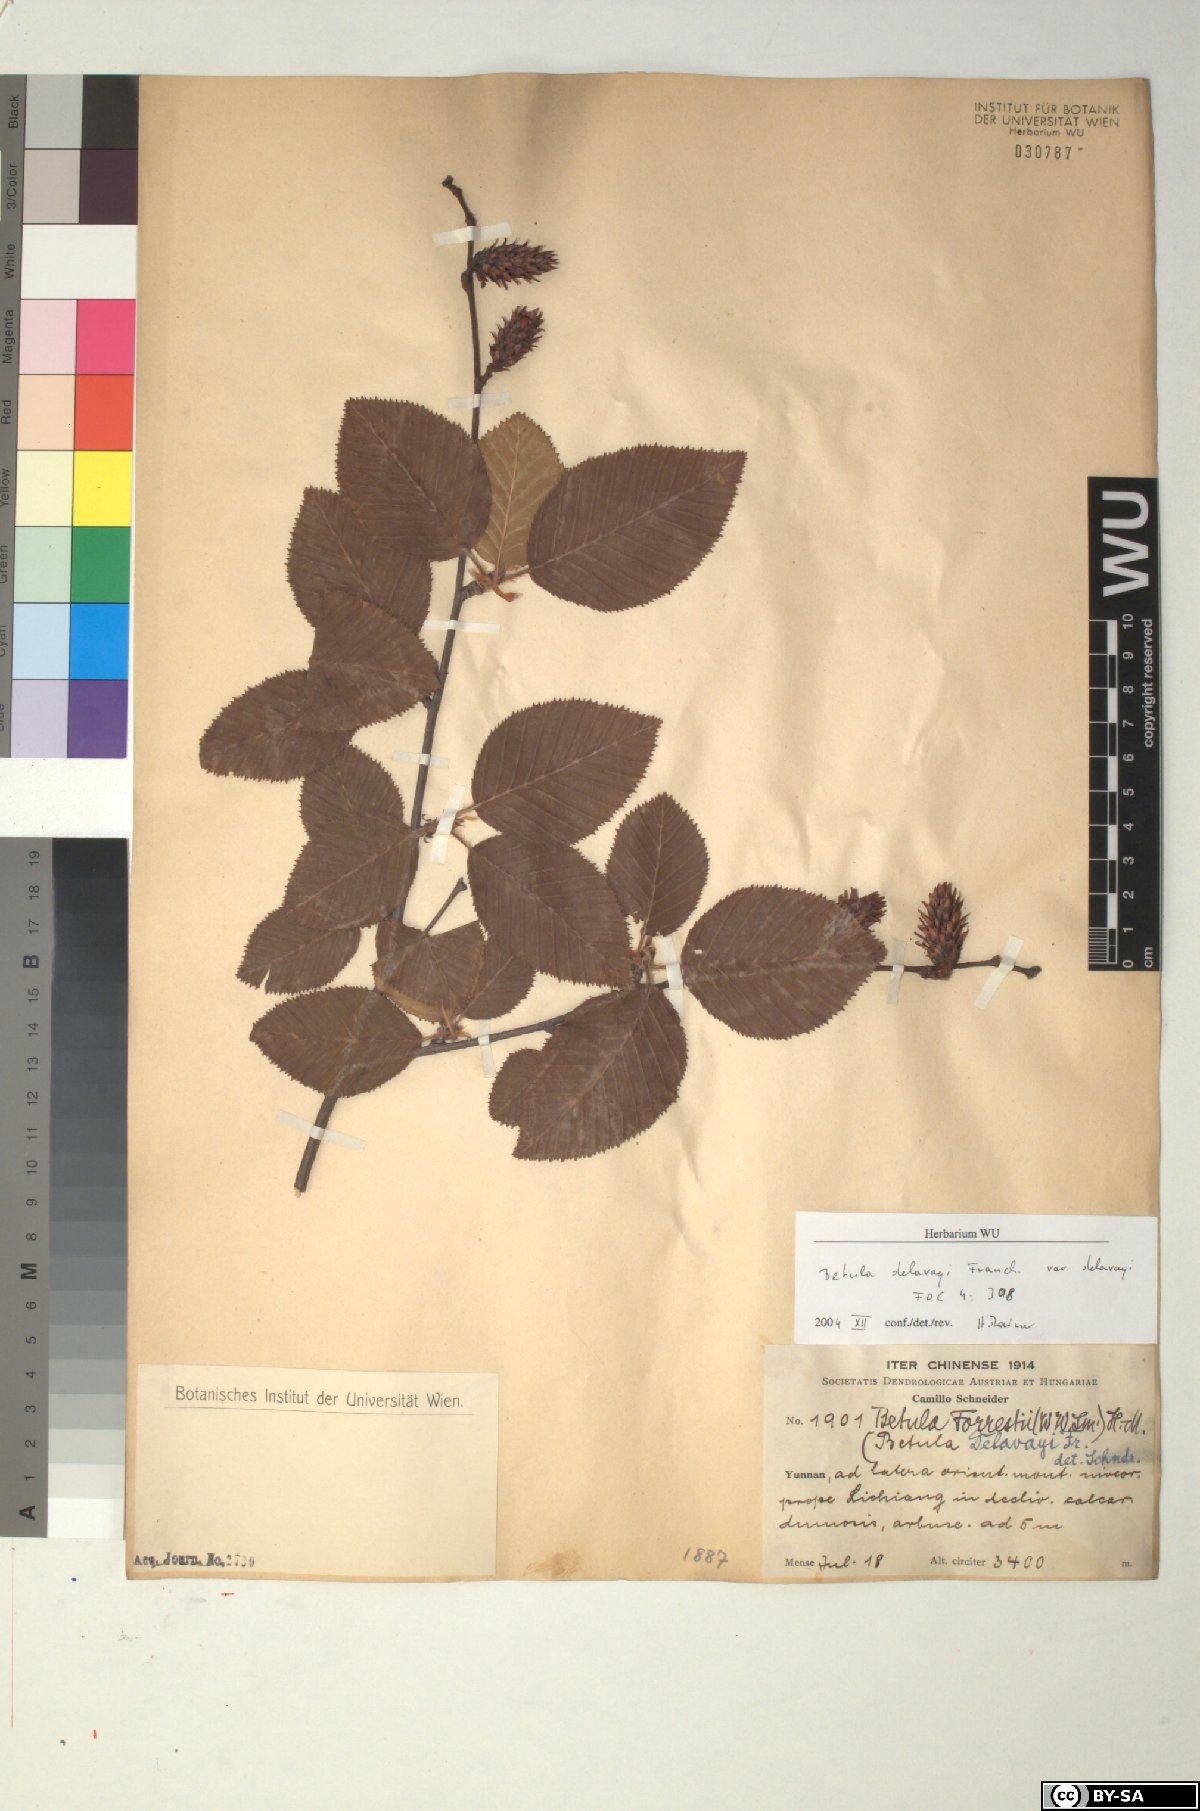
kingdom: Plantae
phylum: Tracheophyta
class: Magnoliopsida
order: Fagales
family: Betulaceae
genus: Betula
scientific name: Betula delavayi
